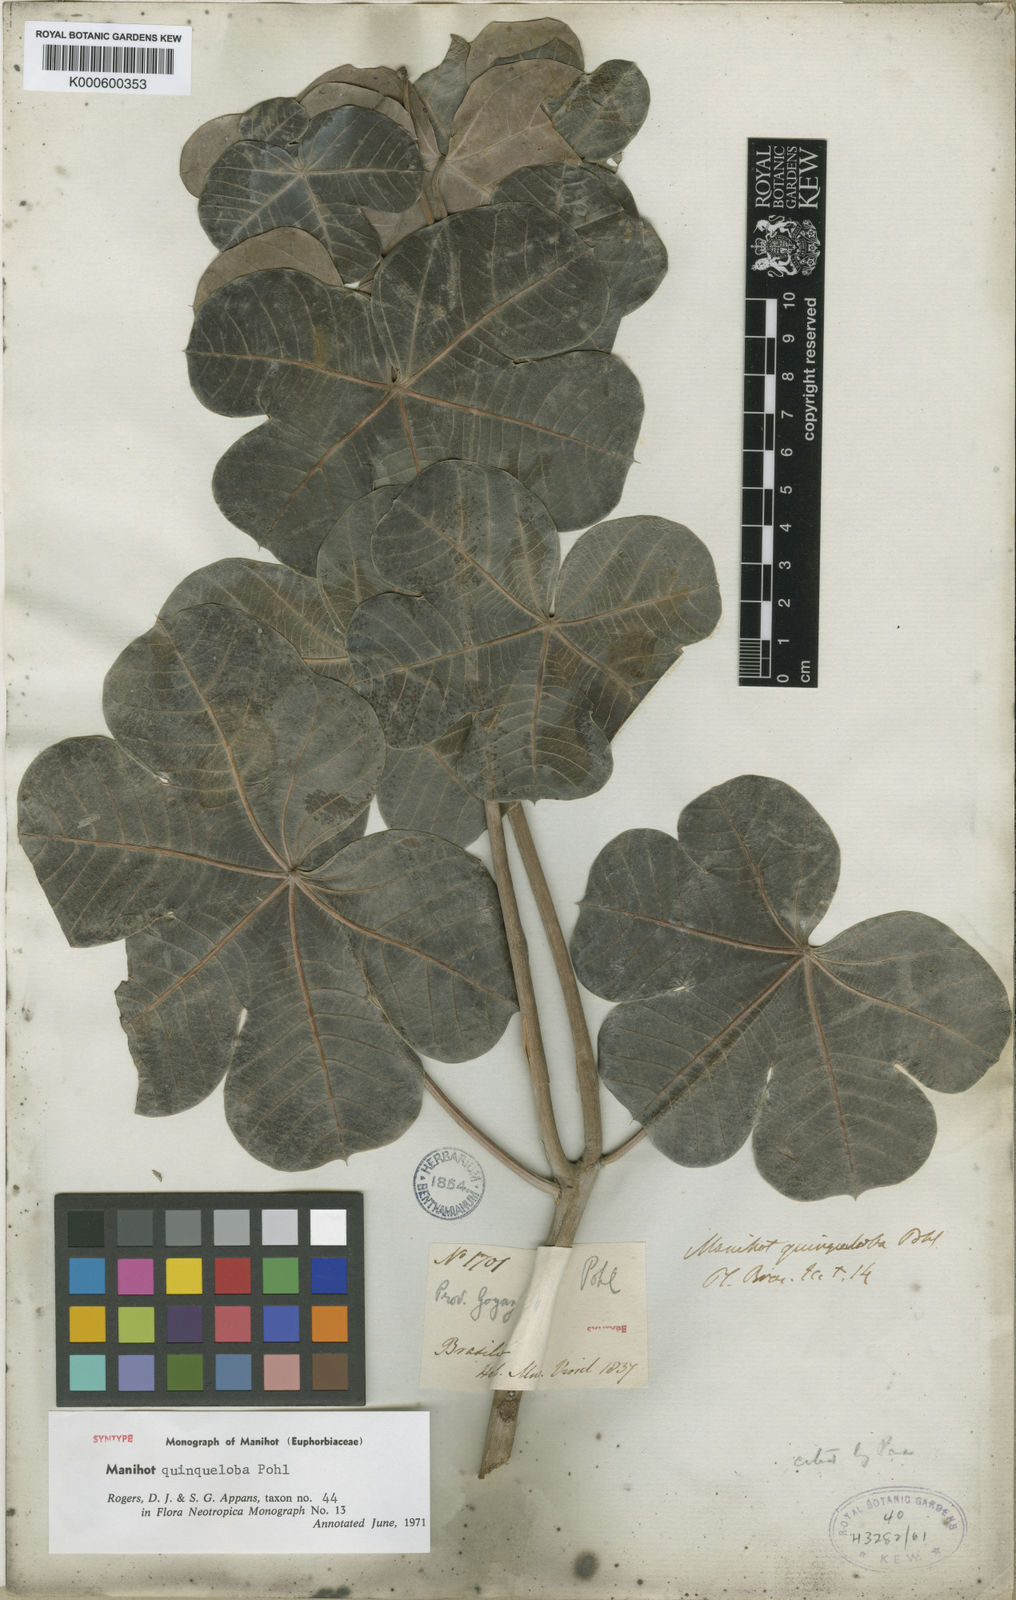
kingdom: Plantae
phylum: Tracheophyta
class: Magnoliopsida
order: Malpighiales
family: Euphorbiaceae
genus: Manihot
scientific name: Manihot quinqueloba
